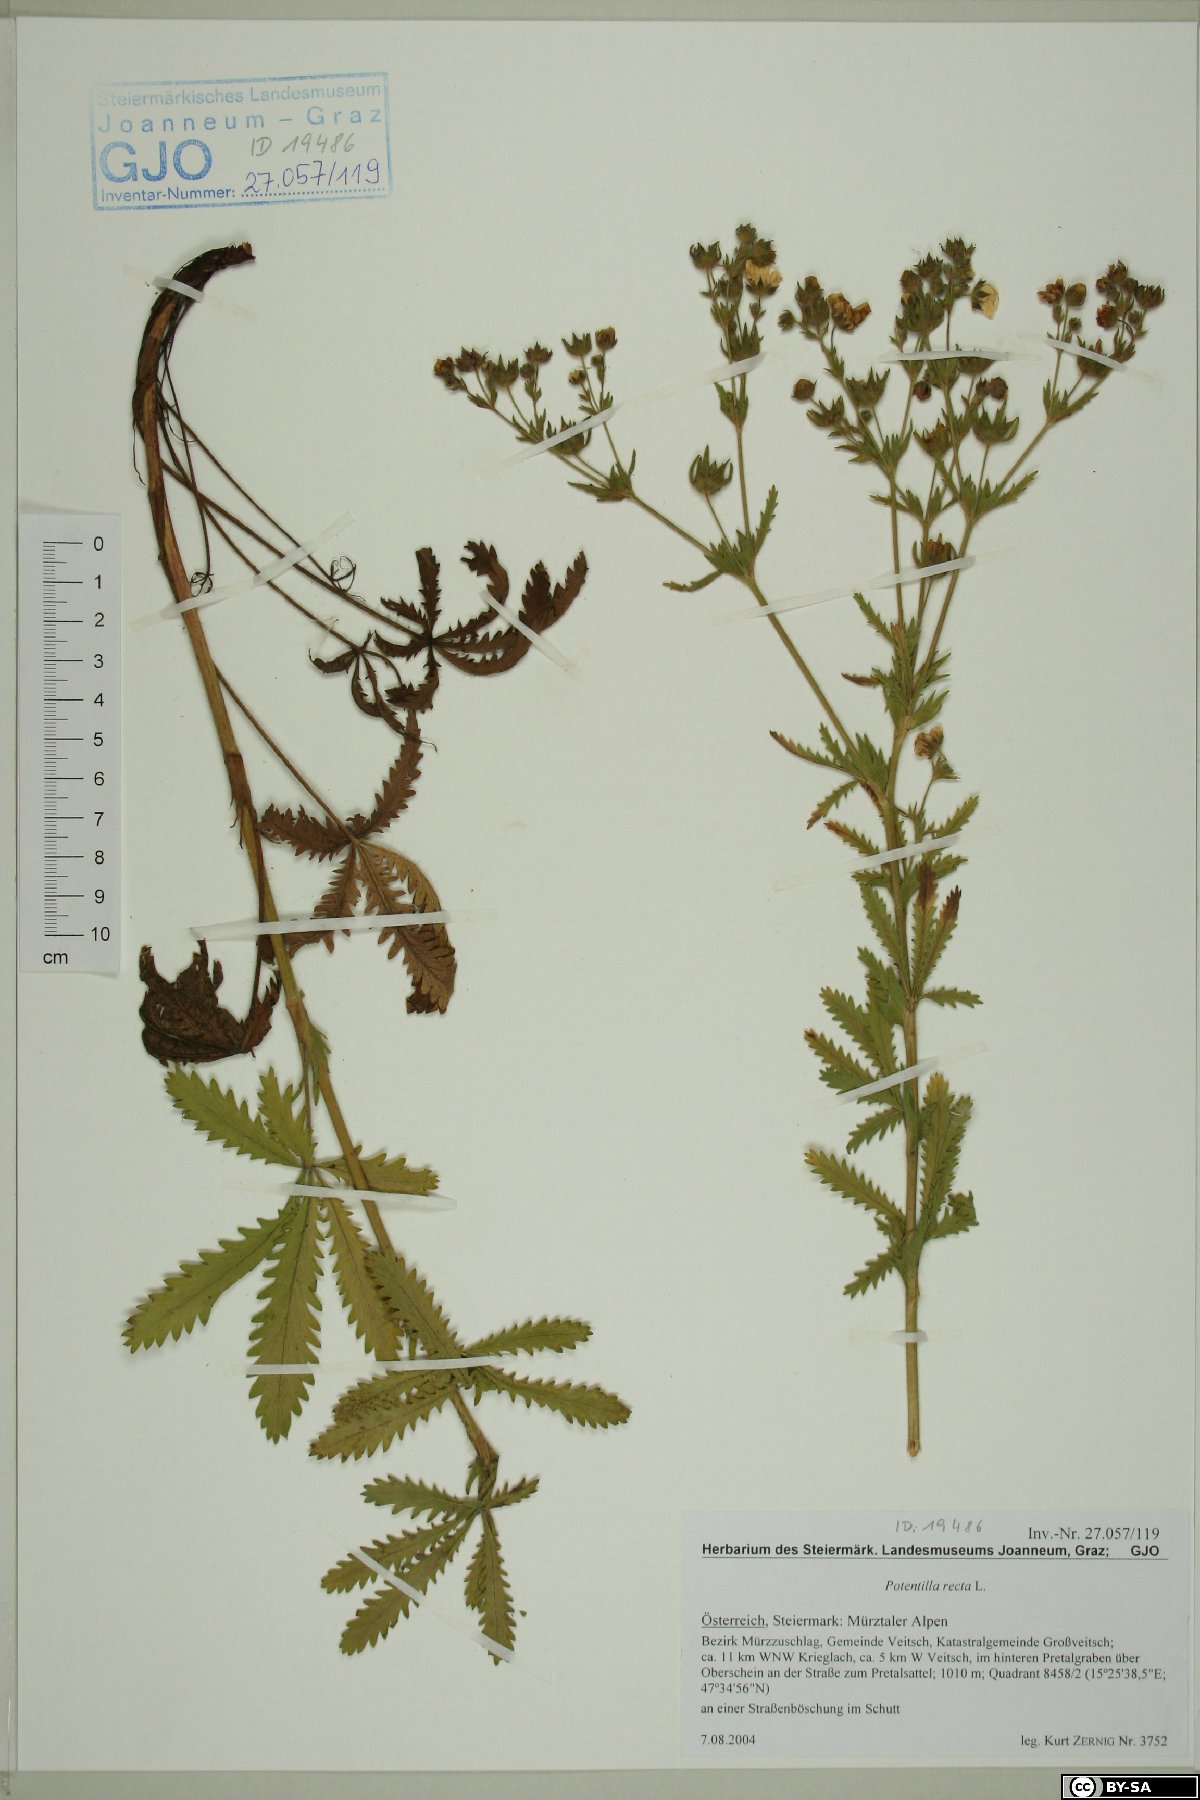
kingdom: Plantae
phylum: Tracheophyta
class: Magnoliopsida
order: Rosales
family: Rosaceae
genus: Potentilla
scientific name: Potentilla recta
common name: Sulphur cinquefoil
